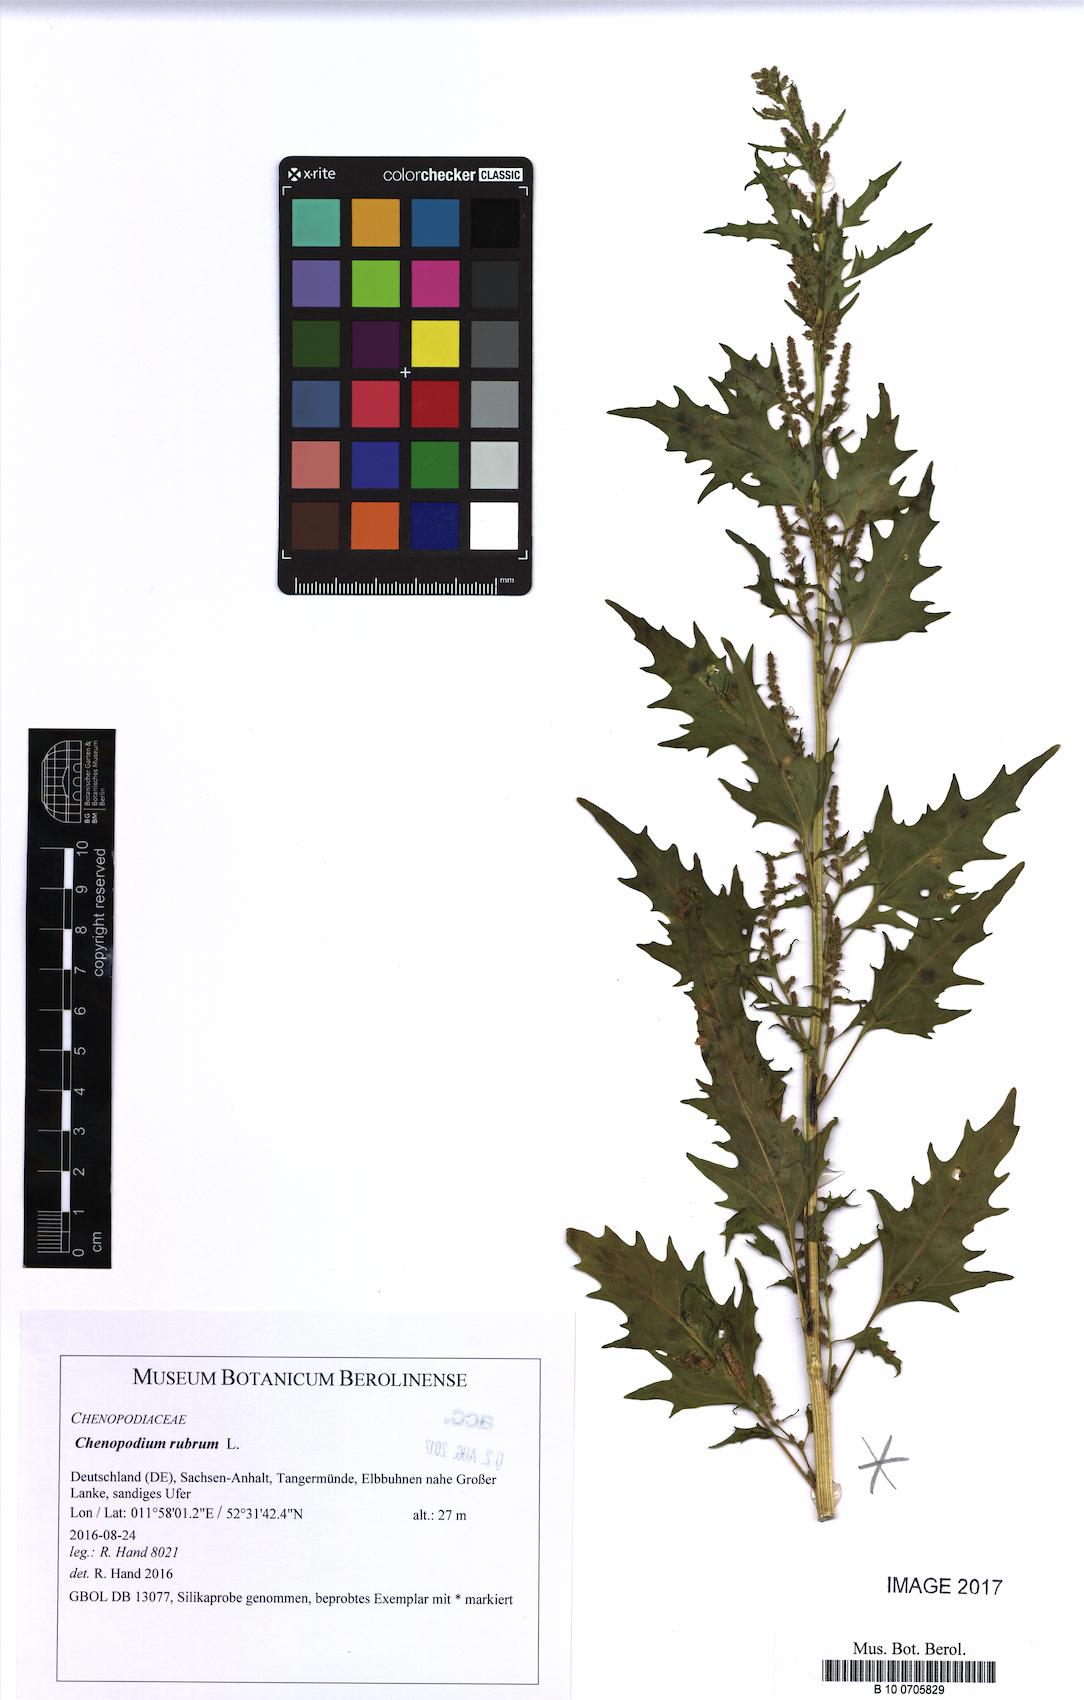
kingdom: Plantae
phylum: Tracheophyta
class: Magnoliopsida
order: Caryophyllales
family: Amaranthaceae
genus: Oxybasis
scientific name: Oxybasis rubra
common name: Red goosefoot
